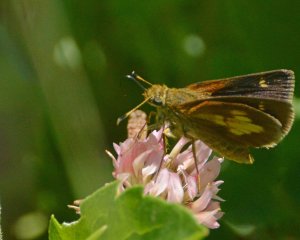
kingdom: Animalia
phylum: Arthropoda
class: Insecta
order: Lepidoptera
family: Hesperiidae
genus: Poanes
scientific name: Poanes massasoit
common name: Mulberry Wing
